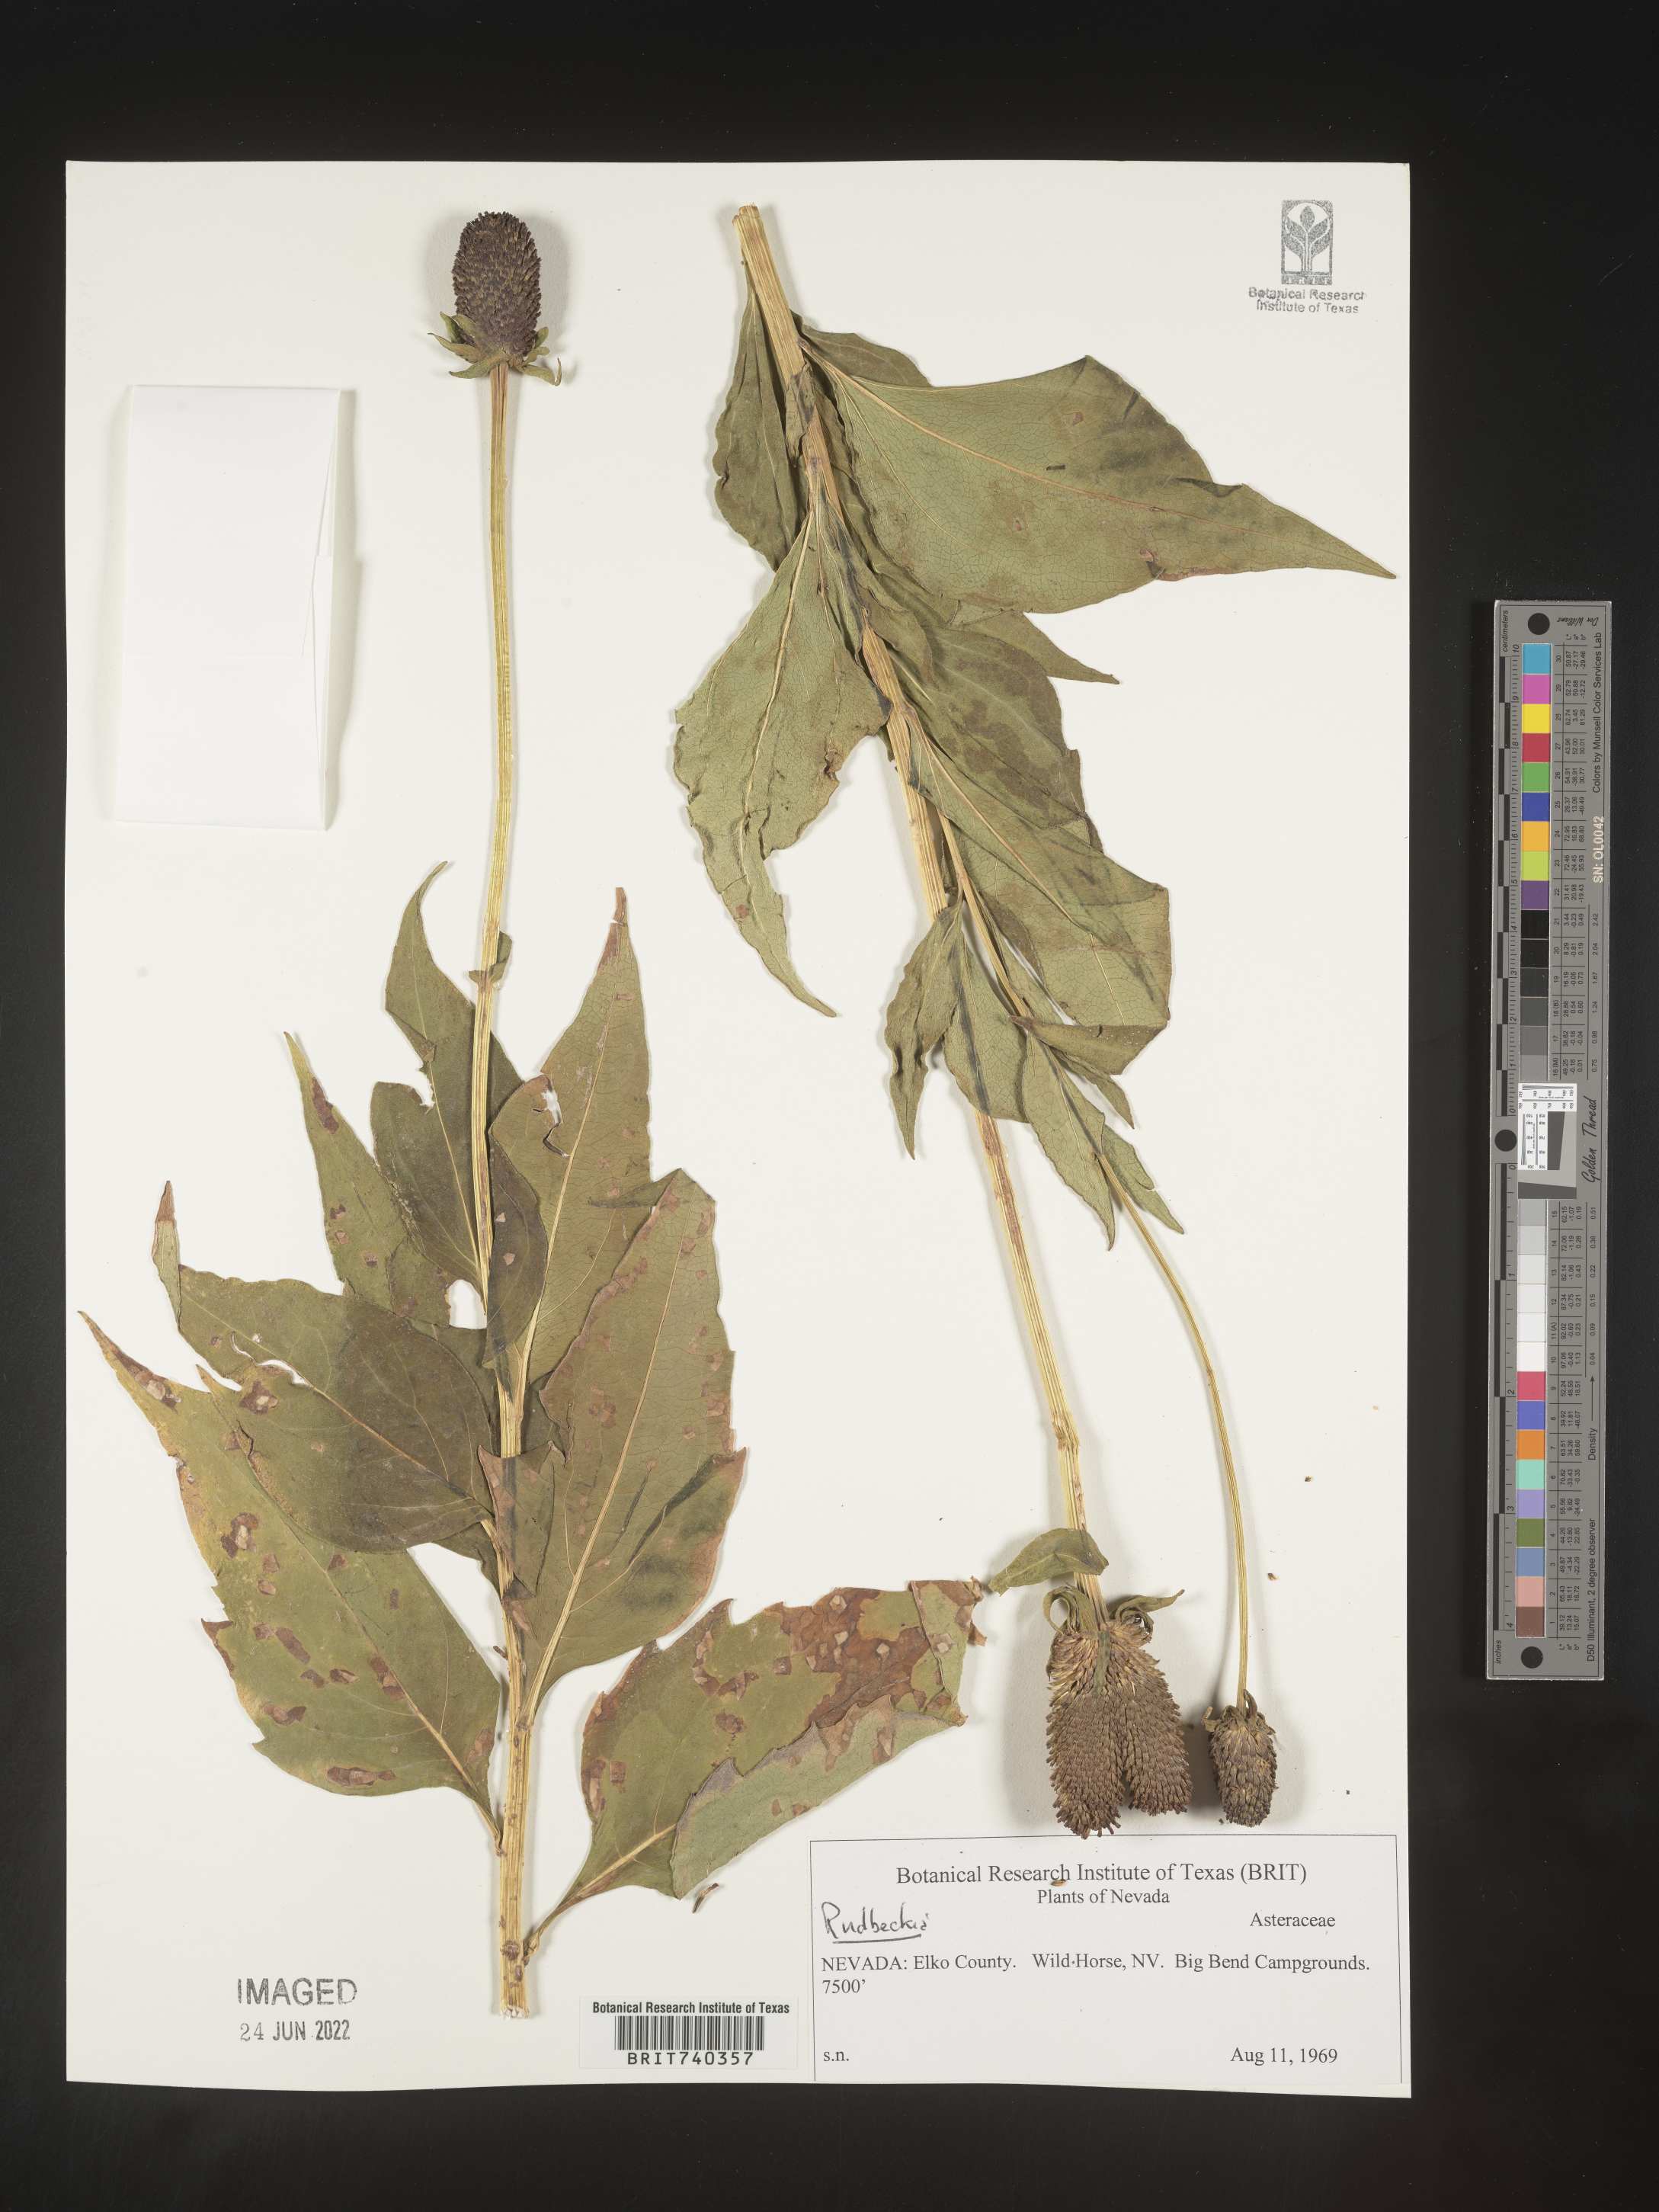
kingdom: Plantae
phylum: Tracheophyta
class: Magnoliopsida
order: Asterales
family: Asteraceae
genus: Rudbeckia
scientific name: Rudbeckia
